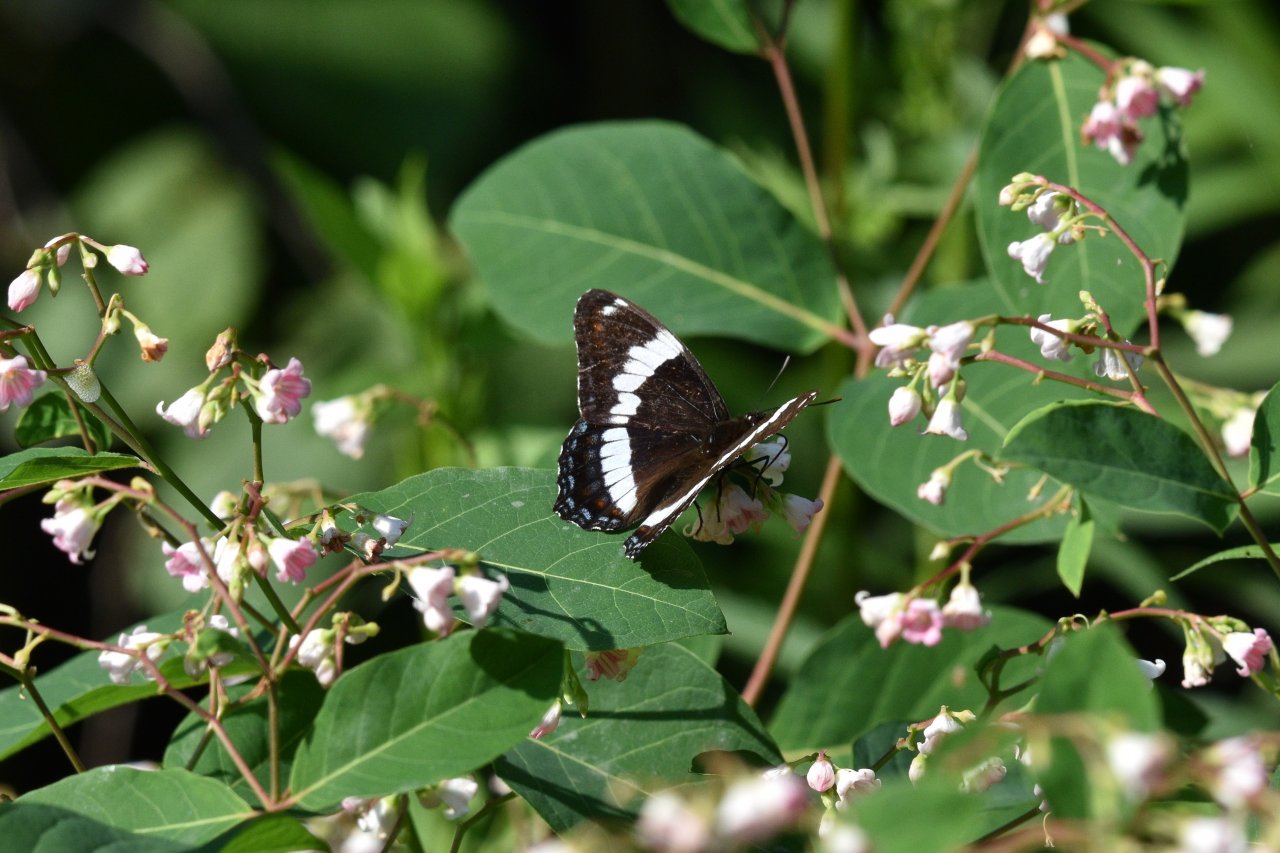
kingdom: Animalia
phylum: Arthropoda
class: Insecta
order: Lepidoptera
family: Nymphalidae
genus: Limenitis
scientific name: Limenitis arthemis
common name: Red-spotted Admiral
